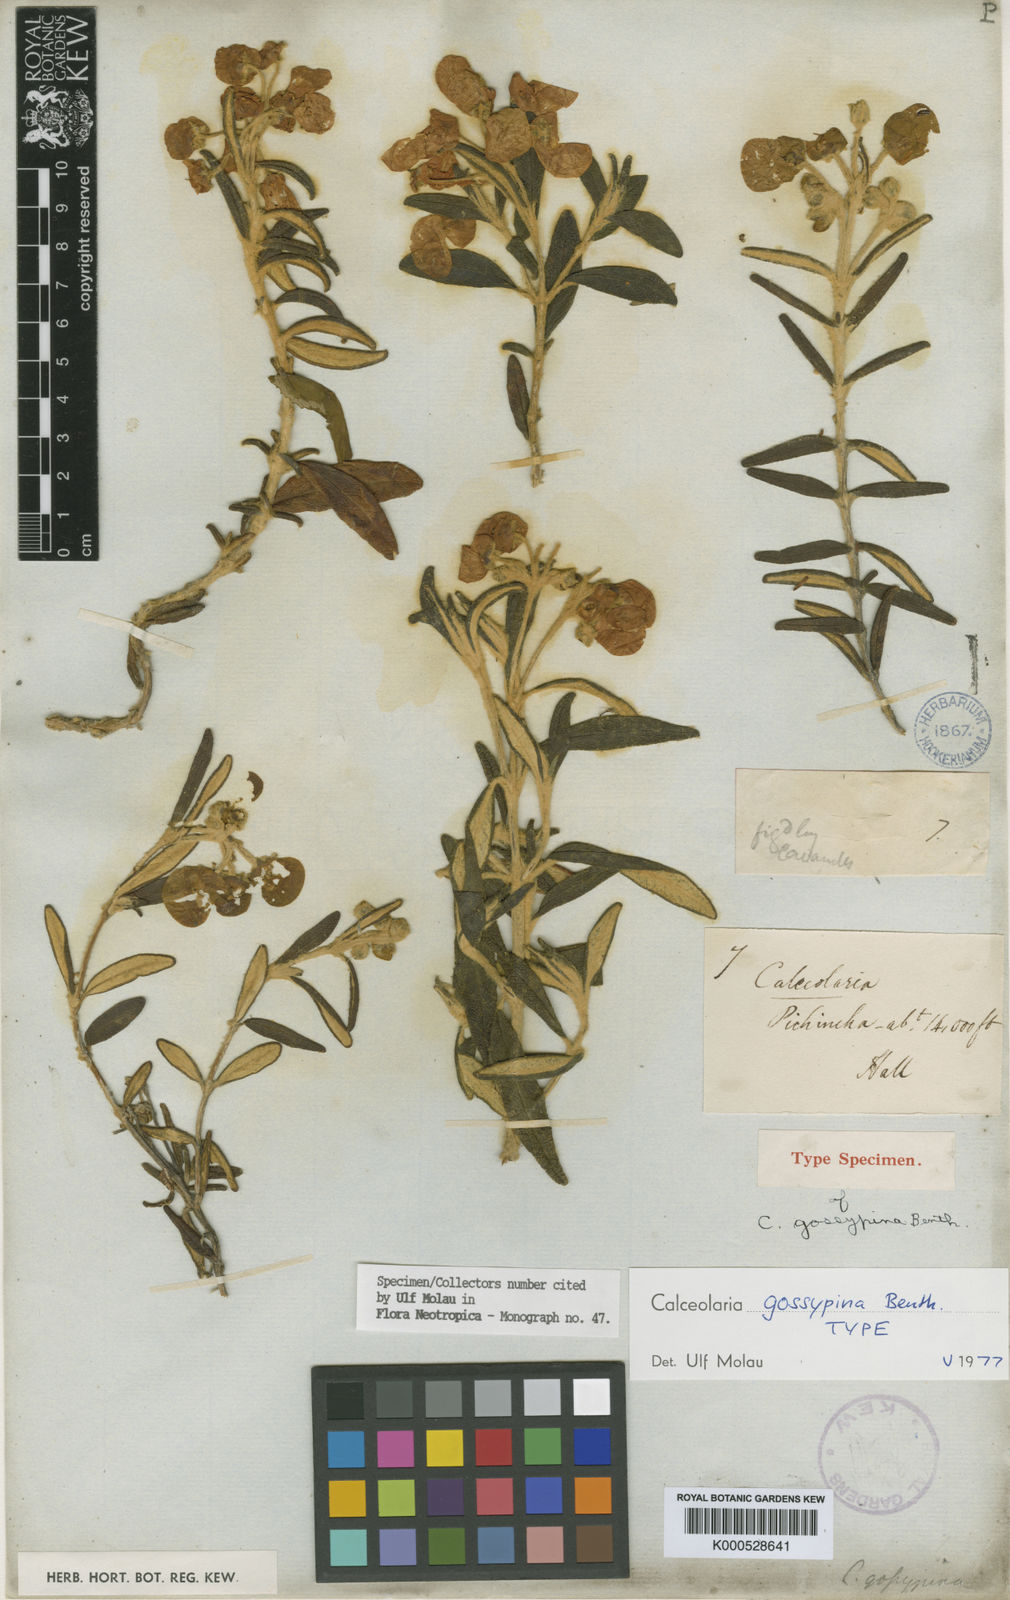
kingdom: Plantae
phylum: Tracheophyta
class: Magnoliopsida
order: Lamiales
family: Calceolariaceae
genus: Calceolaria
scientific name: Calceolaria gossypina
